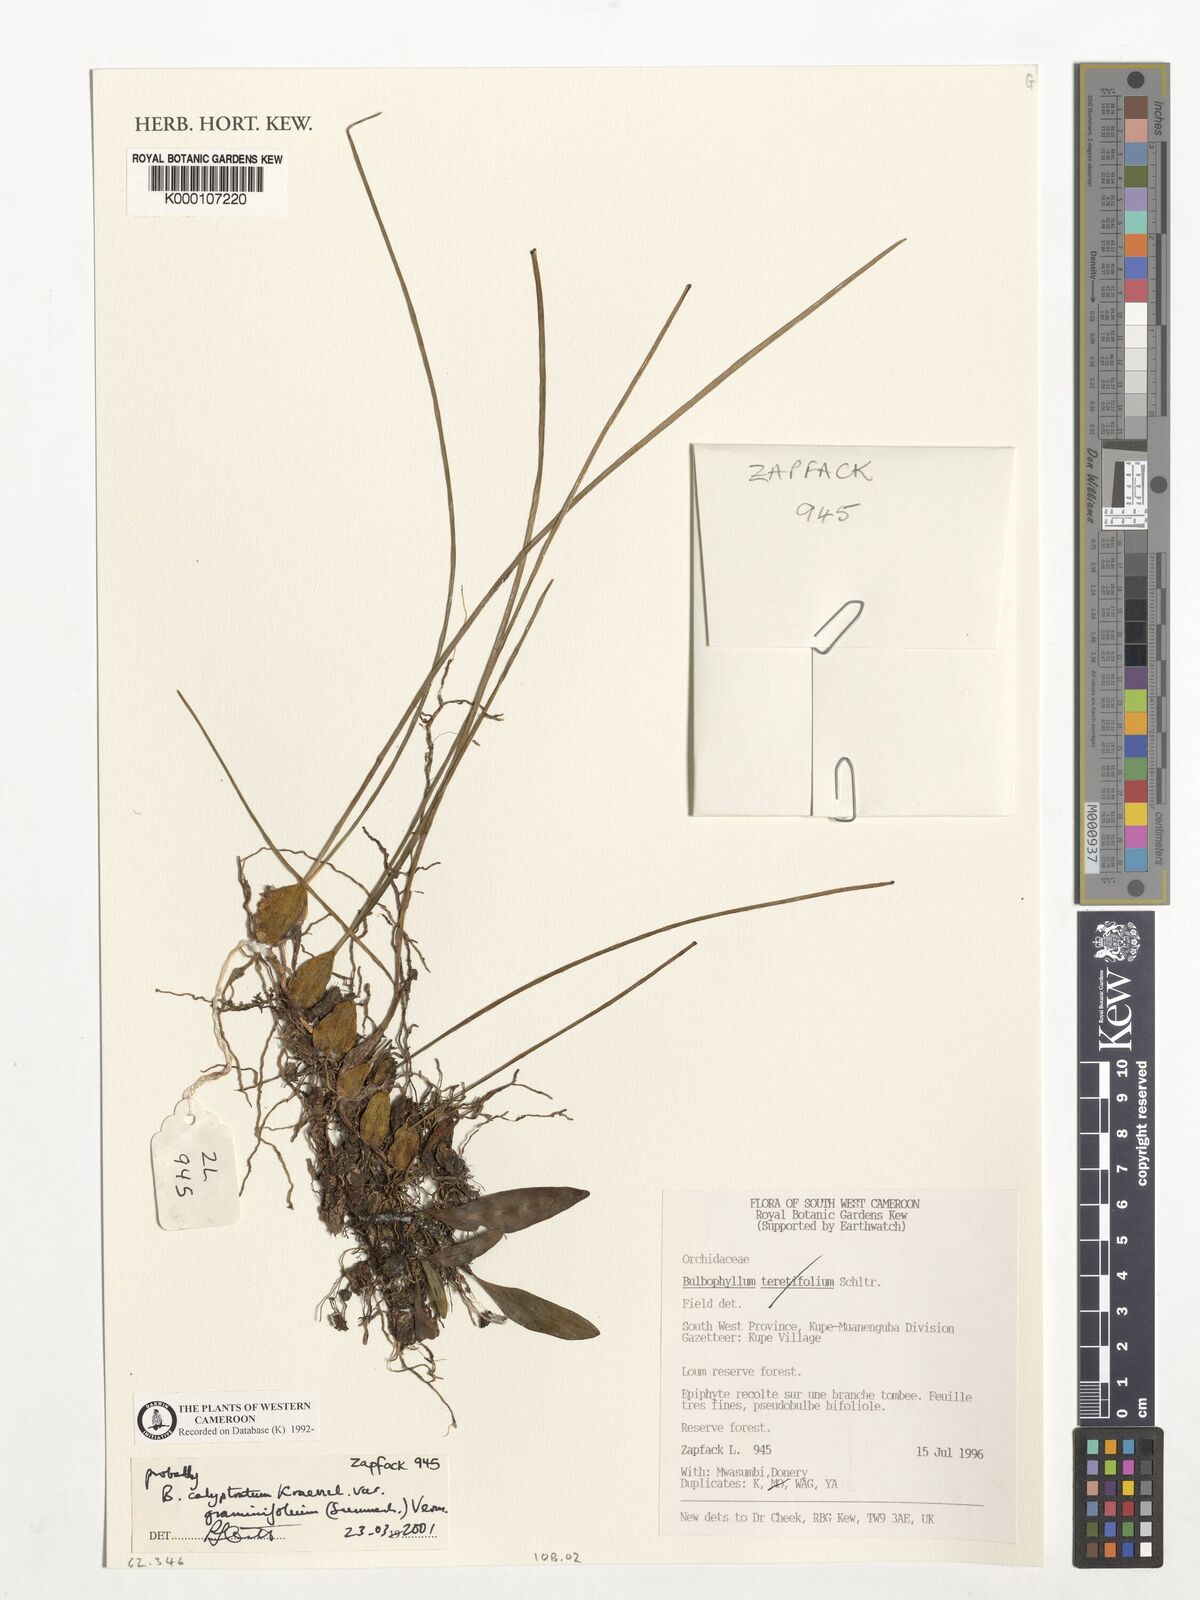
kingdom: Plantae
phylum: Tracheophyta
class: Liliopsida
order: Asparagales
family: Orchidaceae
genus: Bulbophyllum
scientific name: Bulbophyllum calyptratum
